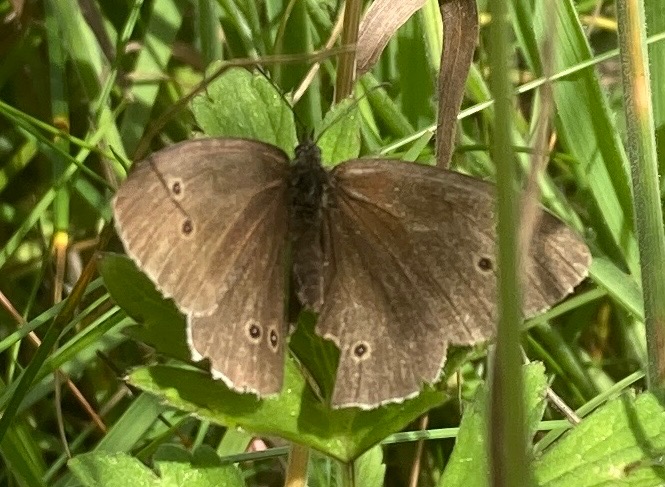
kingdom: Animalia
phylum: Arthropoda
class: Insecta
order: Lepidoptera
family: Nymphalidae
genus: Aphantopus
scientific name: Aphantopus hyperantus
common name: Engrandøje
